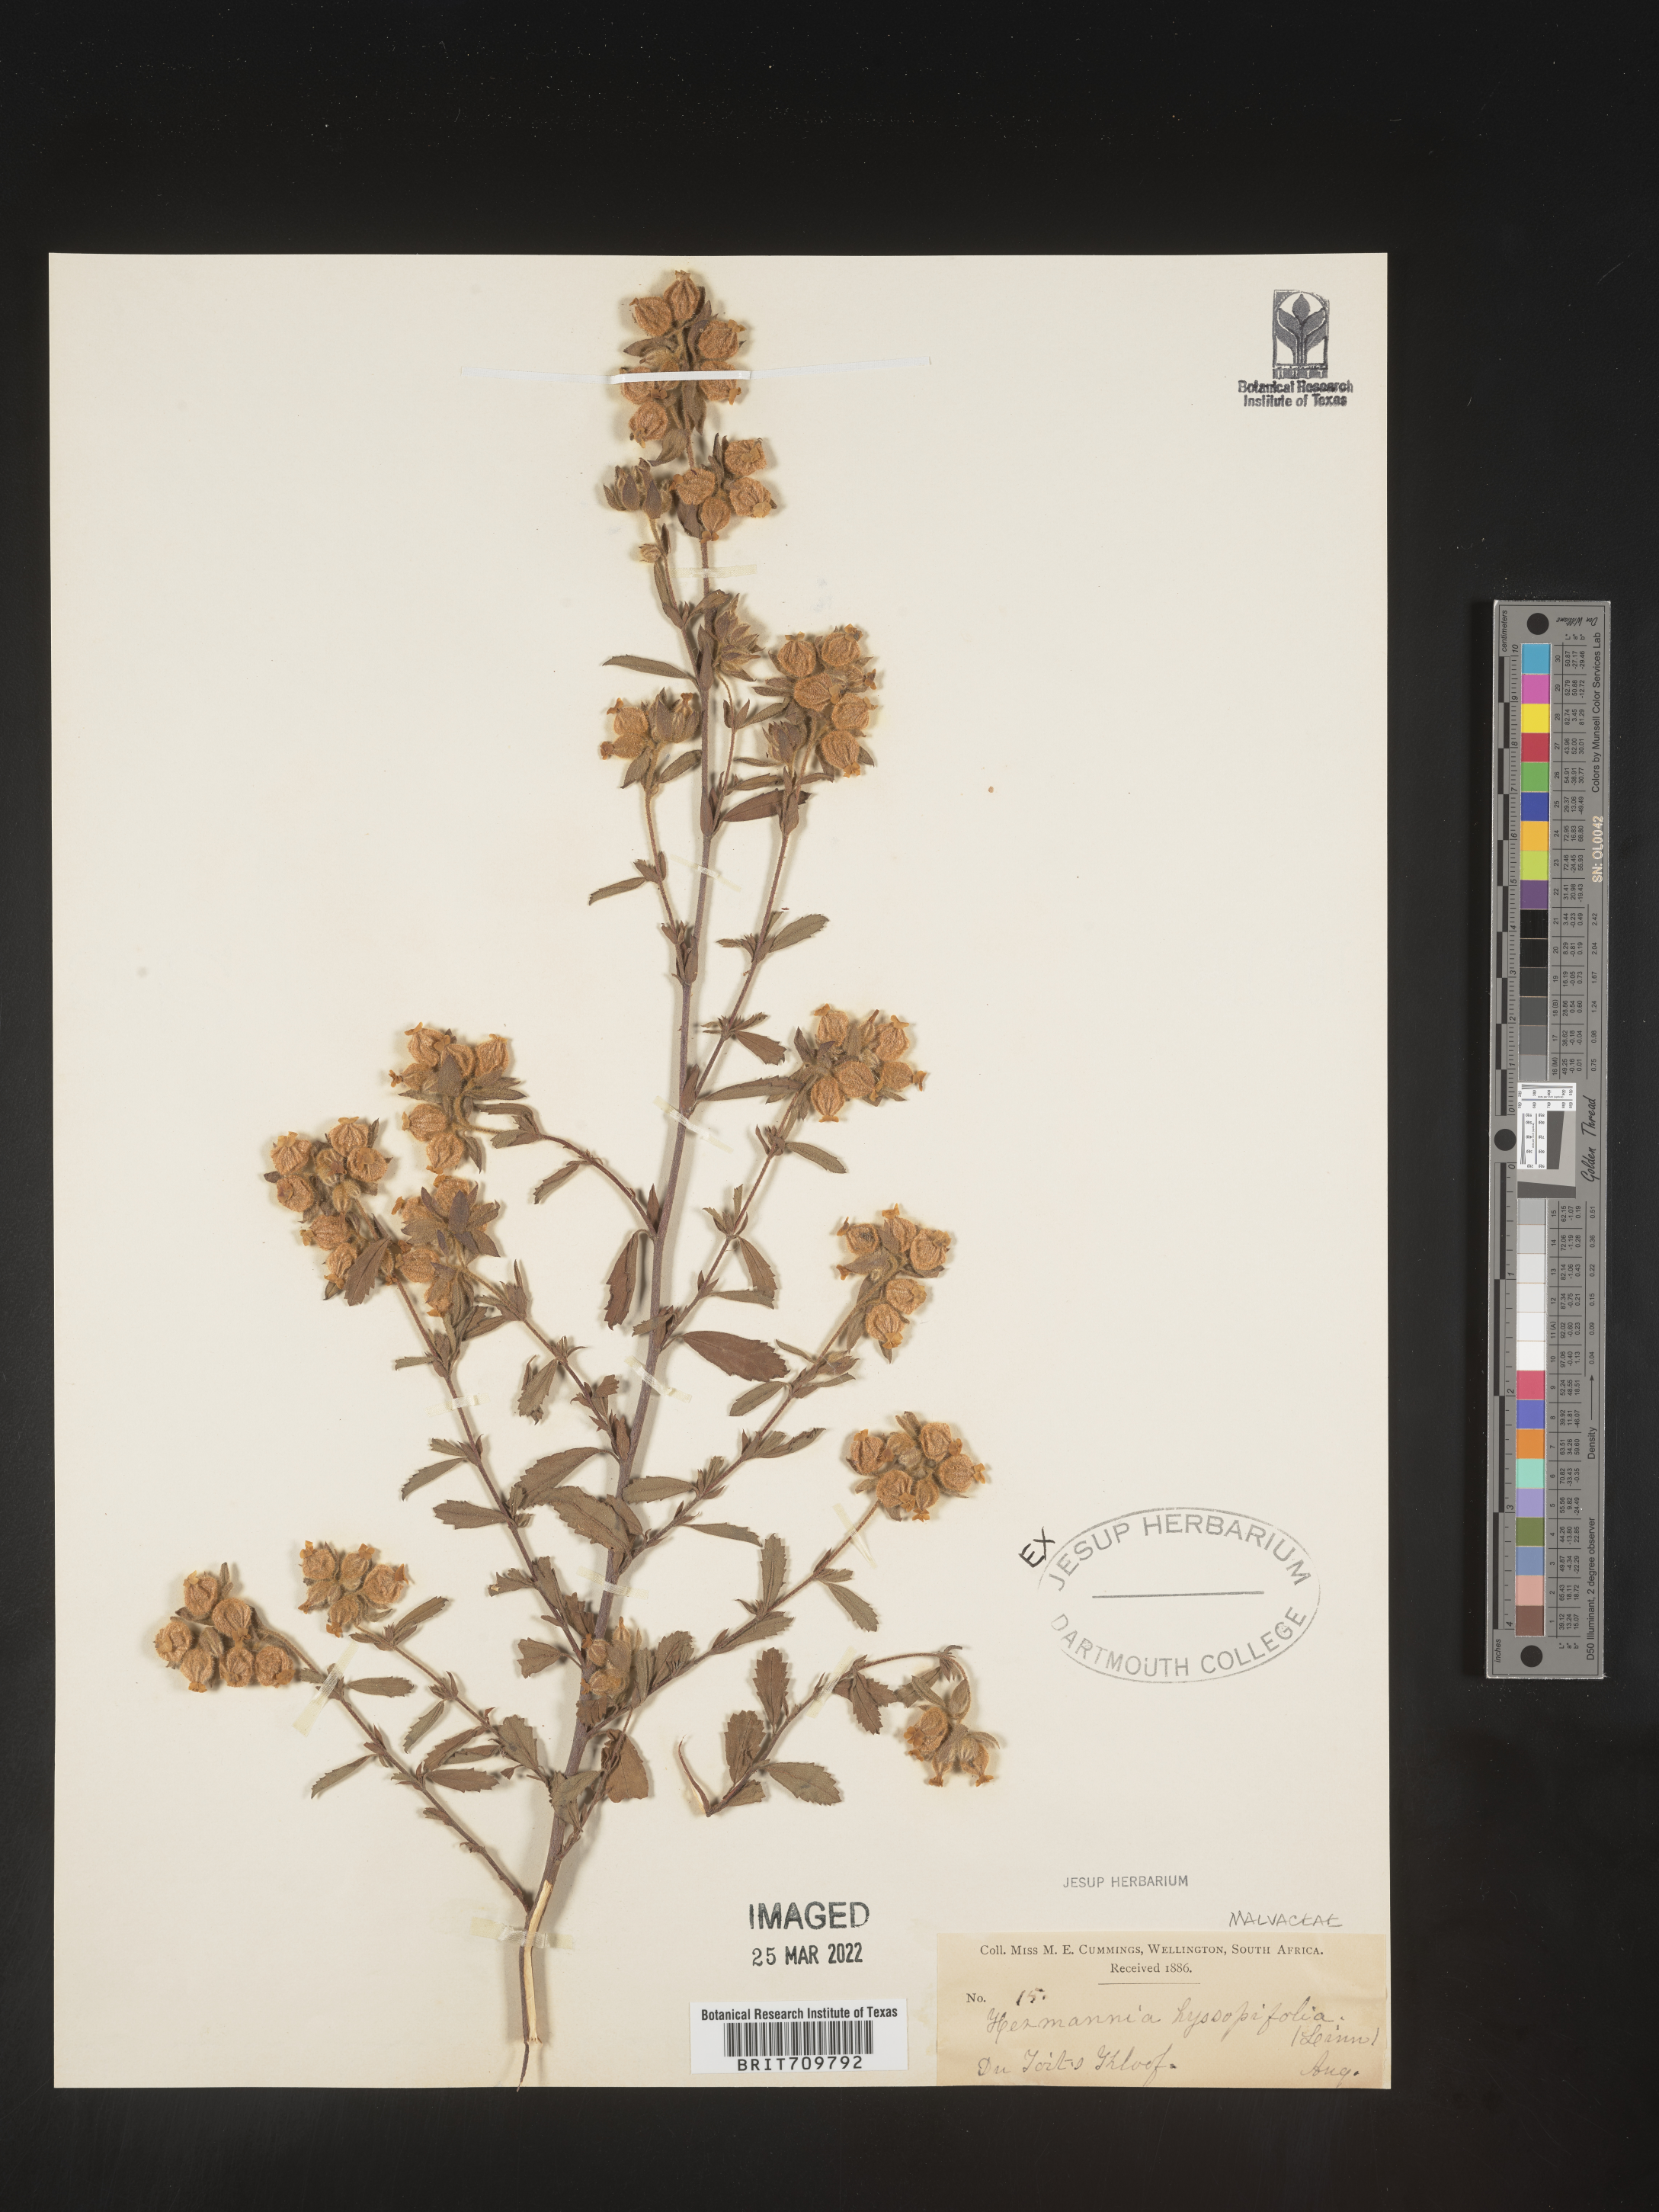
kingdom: Plantae
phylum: Tracheophyta
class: Magnoliopsida
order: Malvales
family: Malvaceae
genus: Hermannia
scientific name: Hermannia
